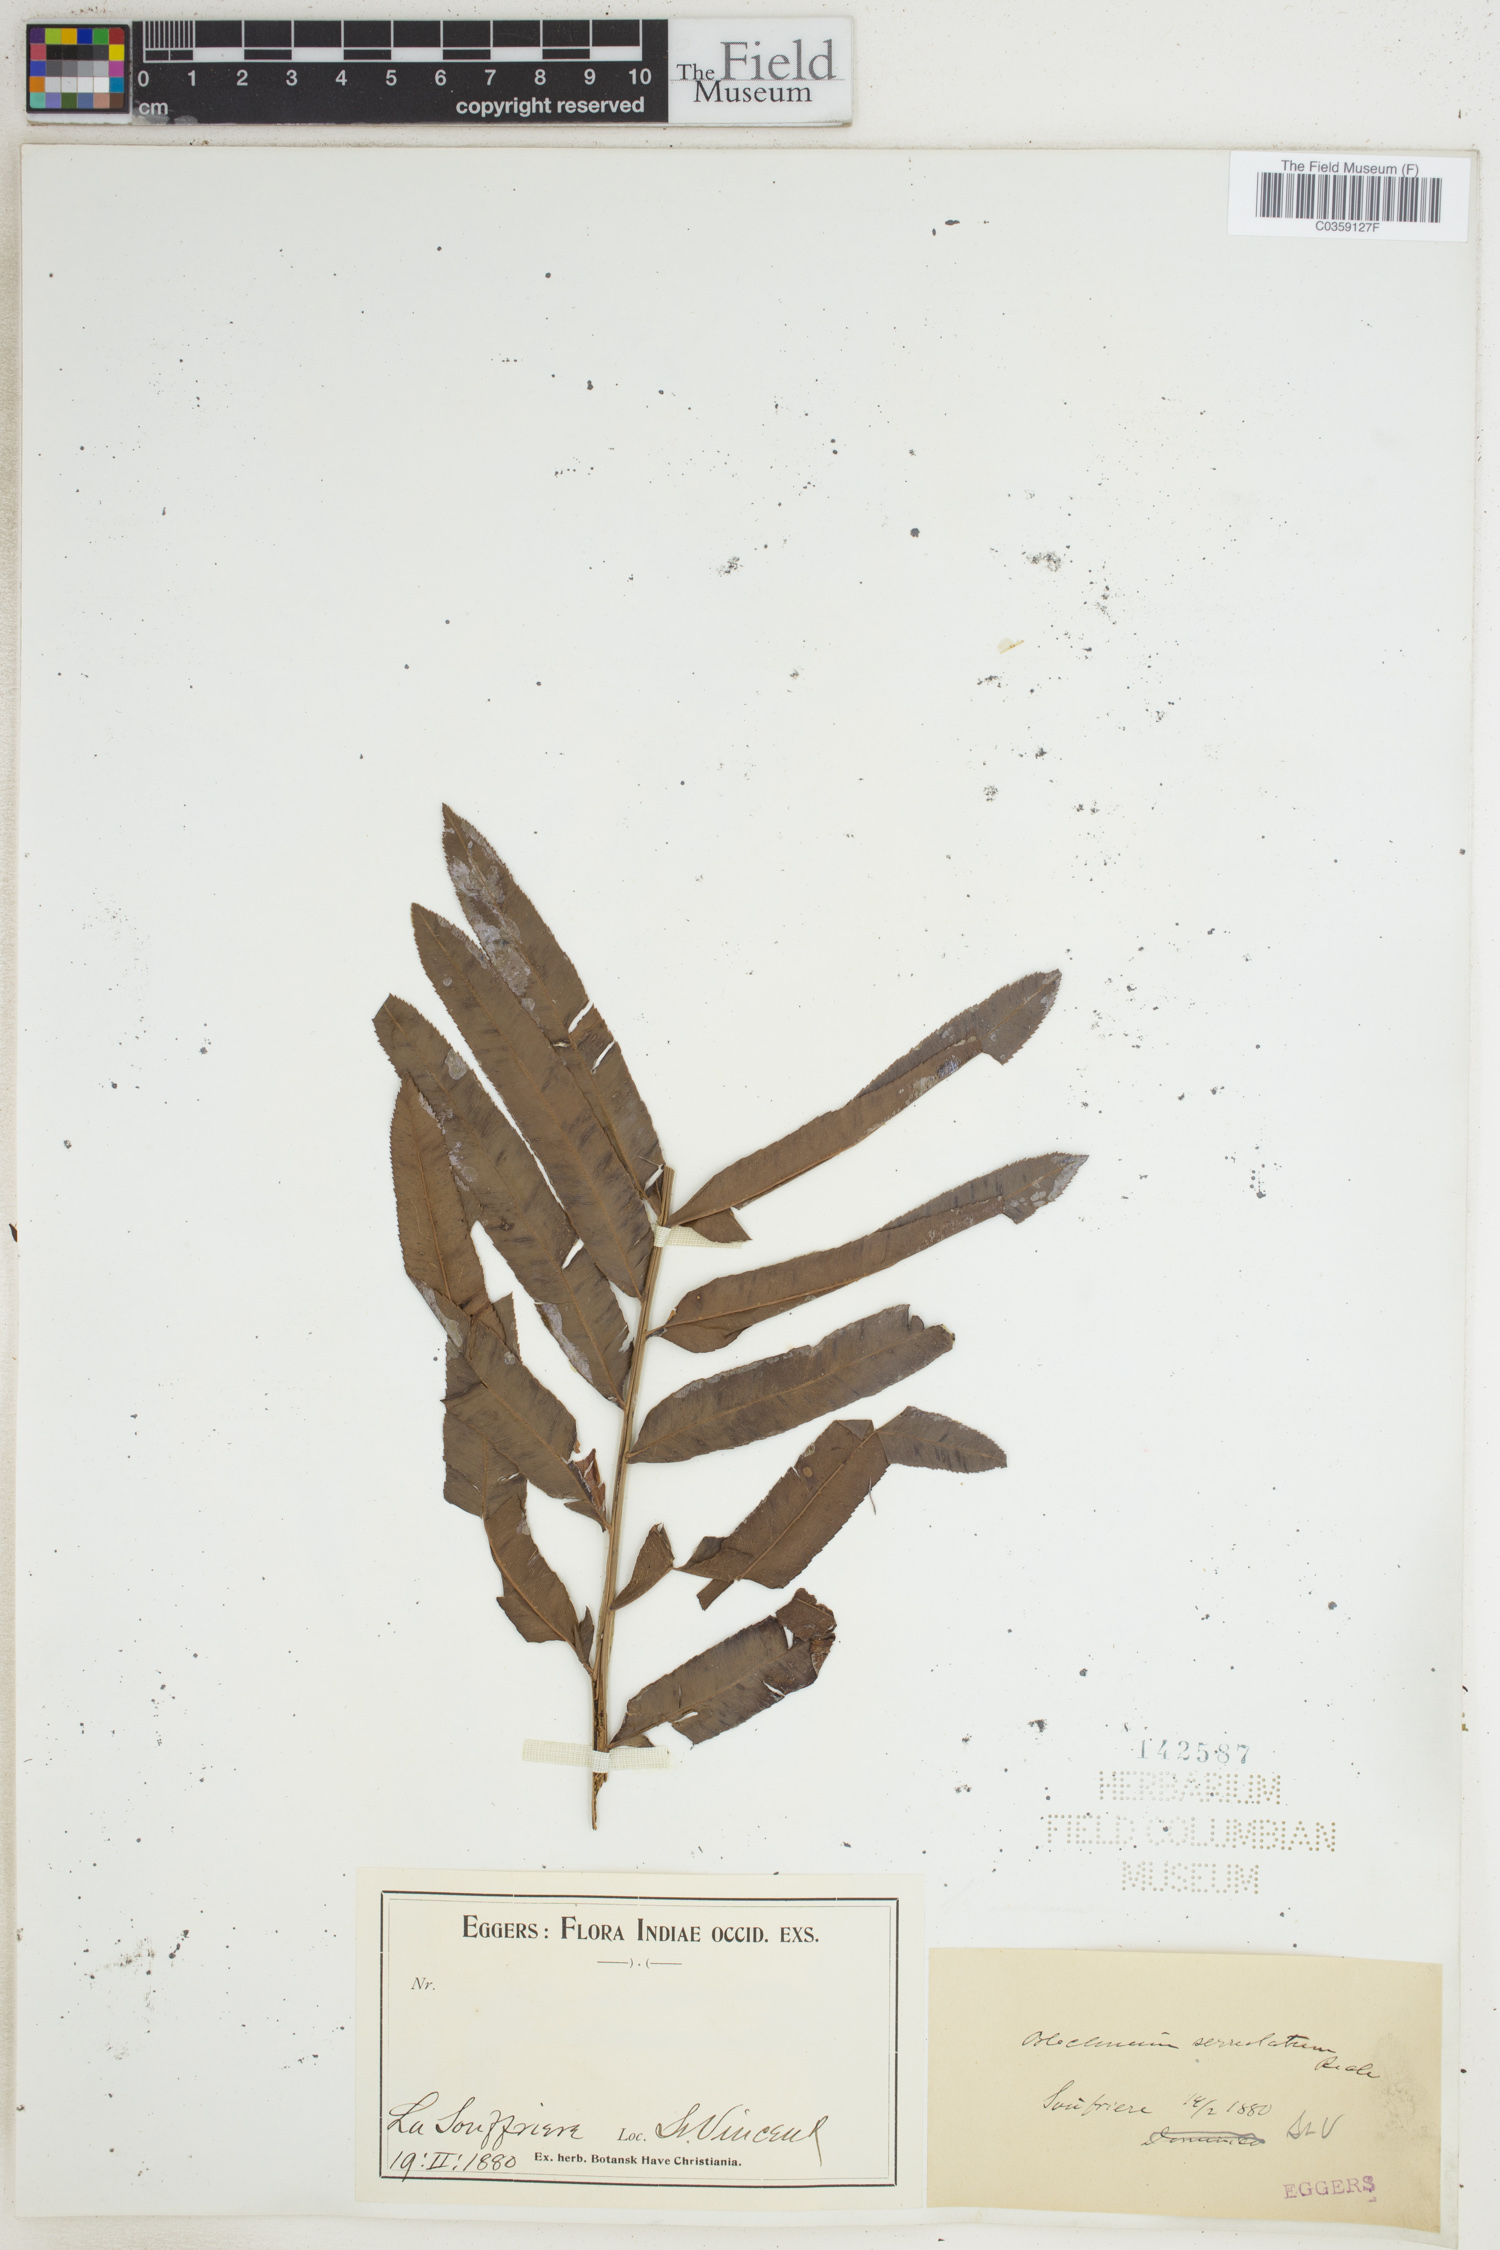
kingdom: Plantae
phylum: Tracheophyta
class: Polypodiopsida
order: Polypodiales
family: Blechnaceae
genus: Telmatoblechnum
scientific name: Telmatoblechnum serrulatum
